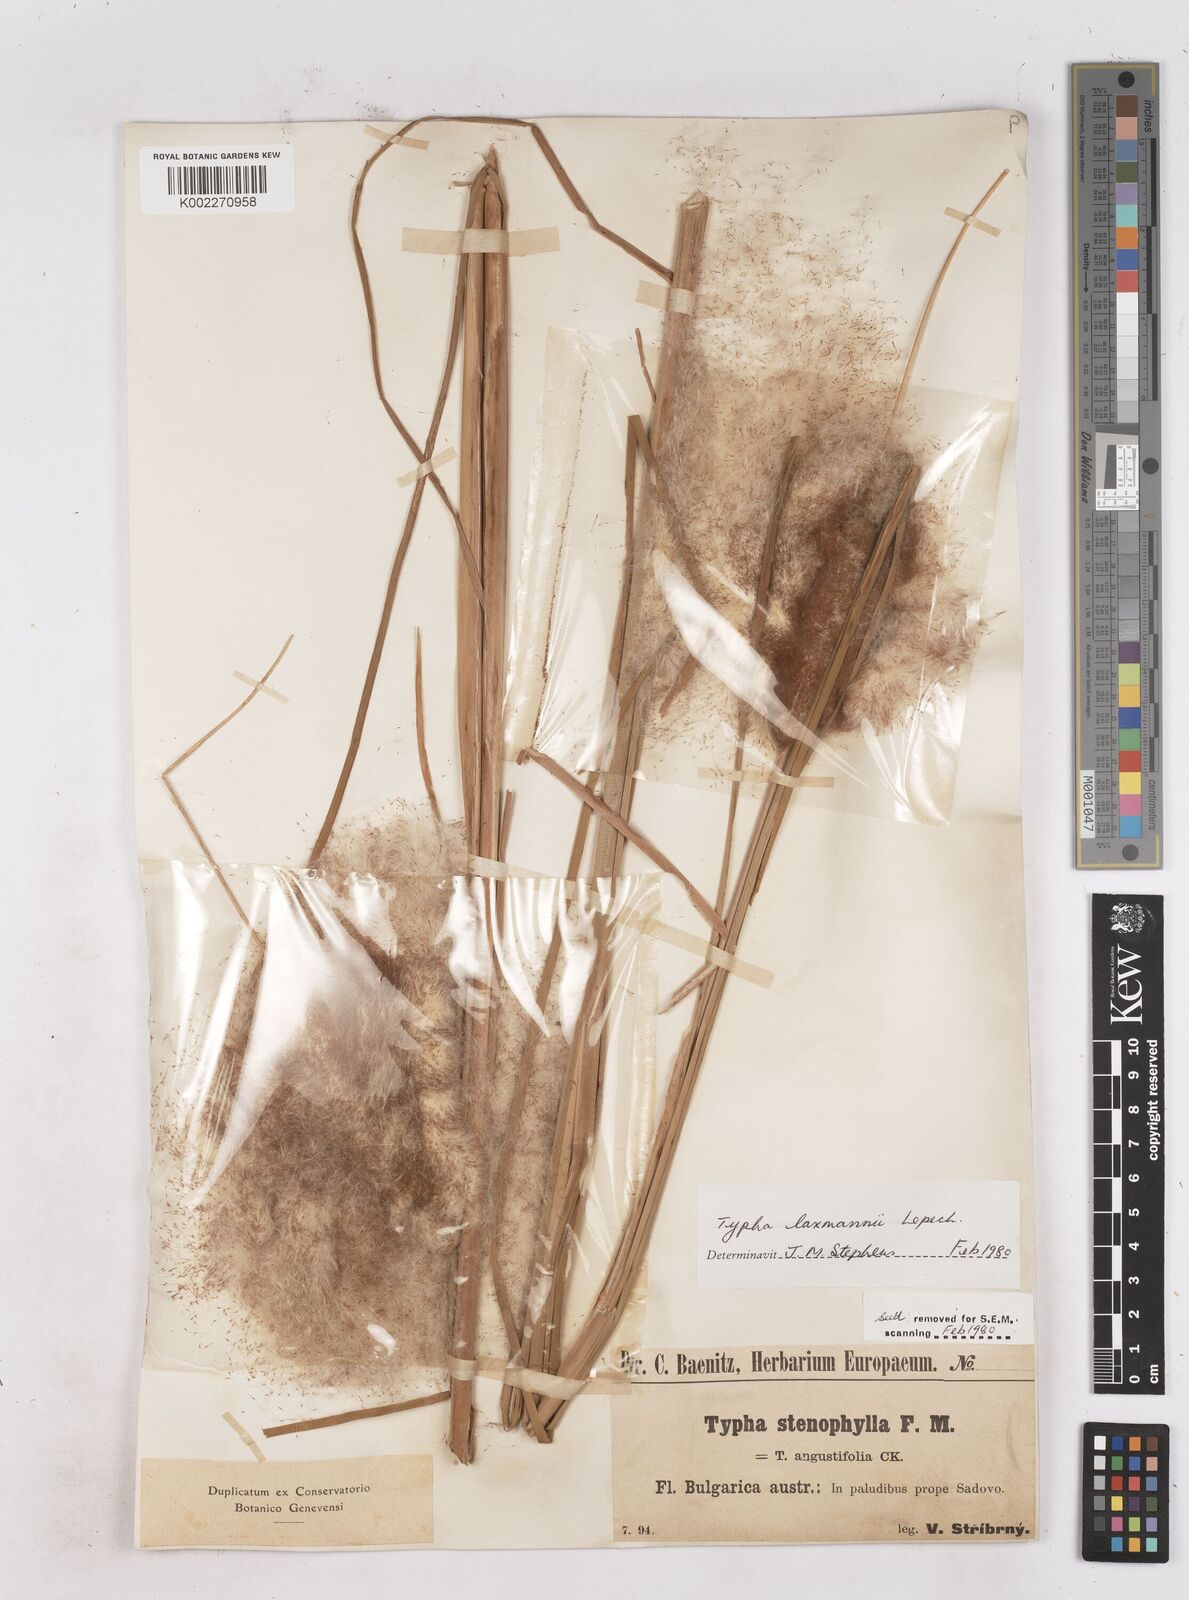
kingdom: Plantae
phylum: Tracheophyta
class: Liliopsida
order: Poales
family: Typhaceae
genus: Typha
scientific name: Typha laxmannii
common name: Laxman’s bulrush
